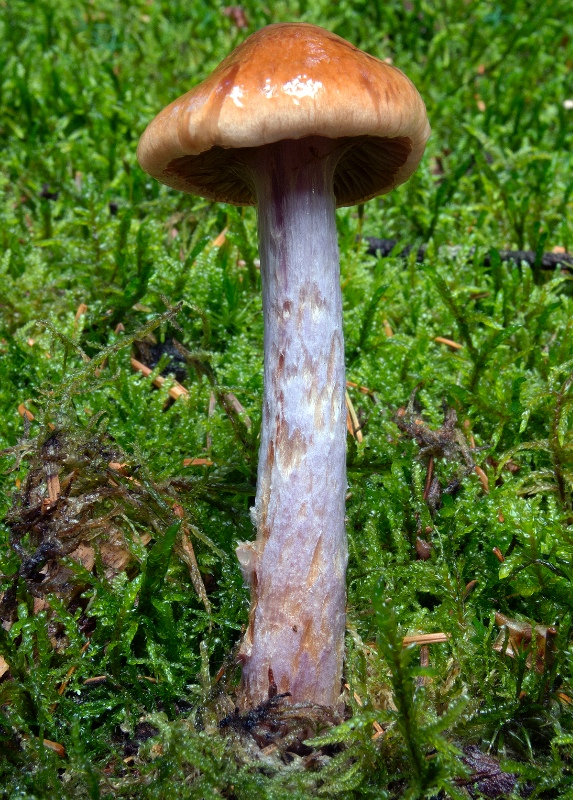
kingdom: Fungi
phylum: Basidiomycota
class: Agaricomycetes
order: Agaricales
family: Cortinariaceae
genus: Cortinarius
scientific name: Cortinarius collinitus
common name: spættet slørhat
